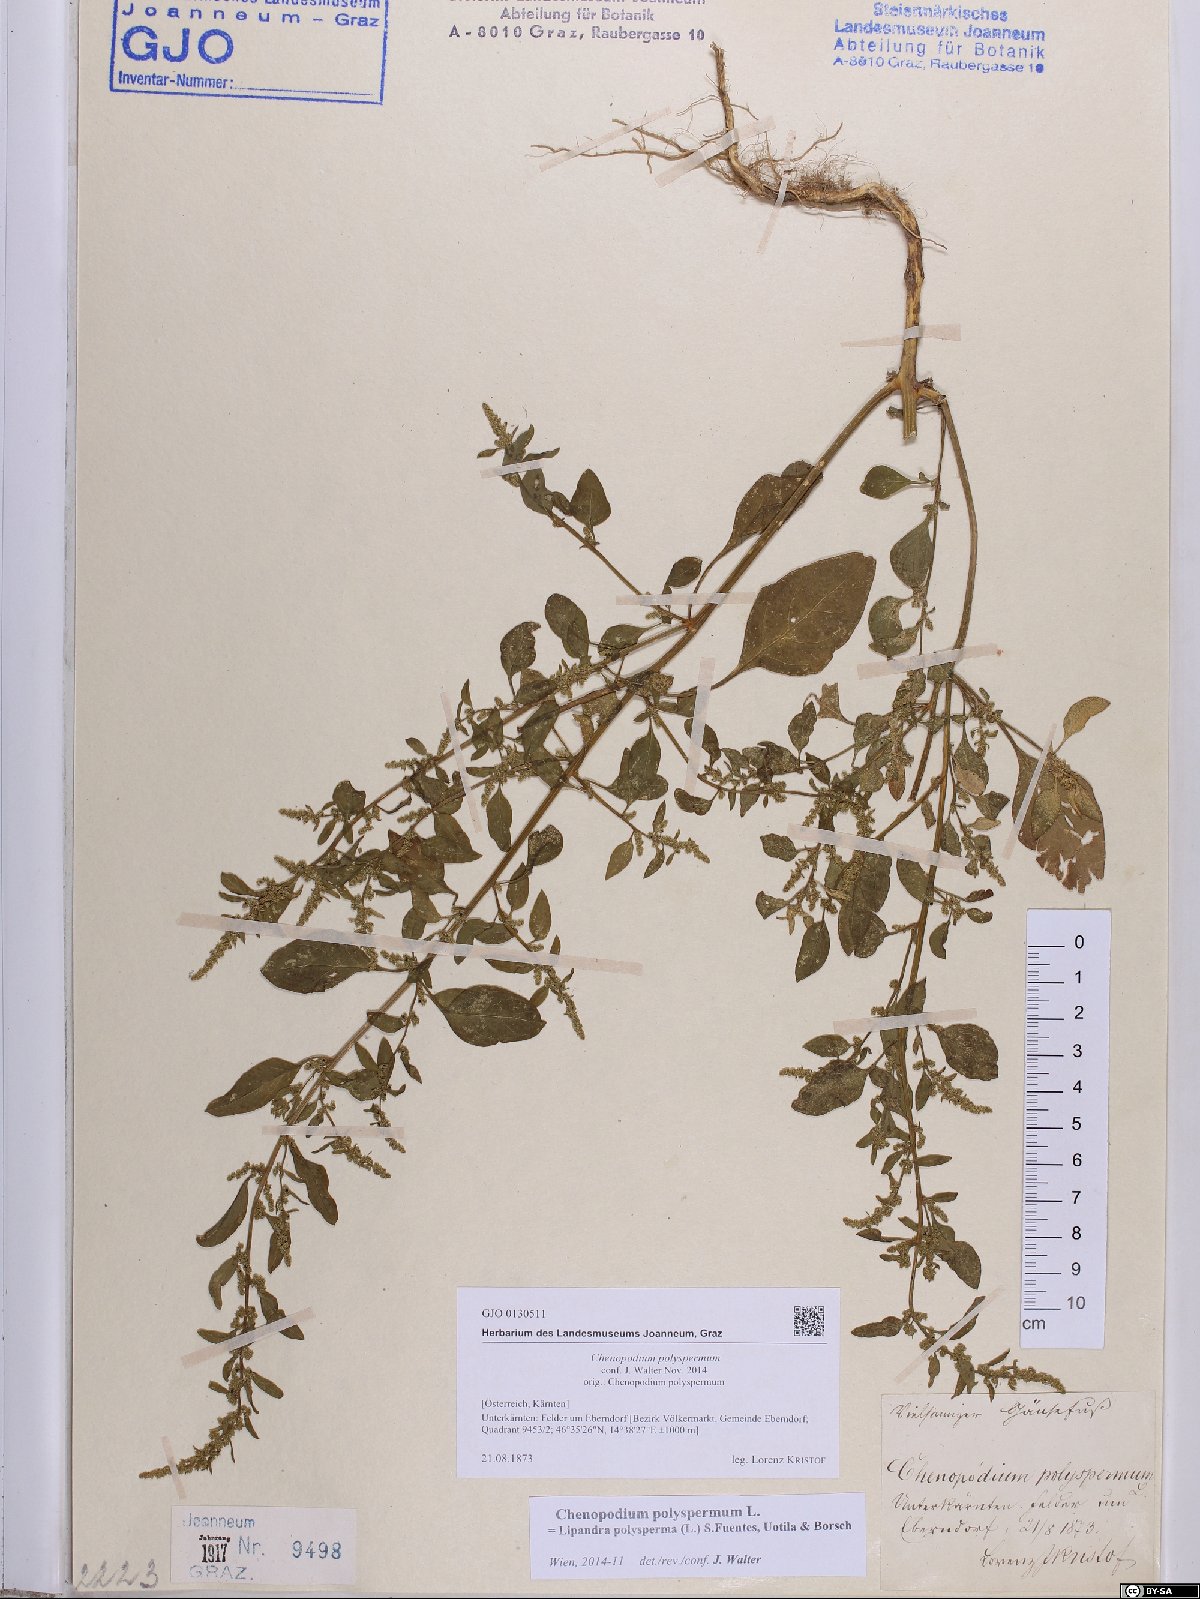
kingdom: Plantae
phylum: Tracheophyta
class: Magnoliopsida
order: Caryophyllales
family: Amaranthaceae
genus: Lipandra
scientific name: Lipandra polysperma
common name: Many-seed goosefoot
